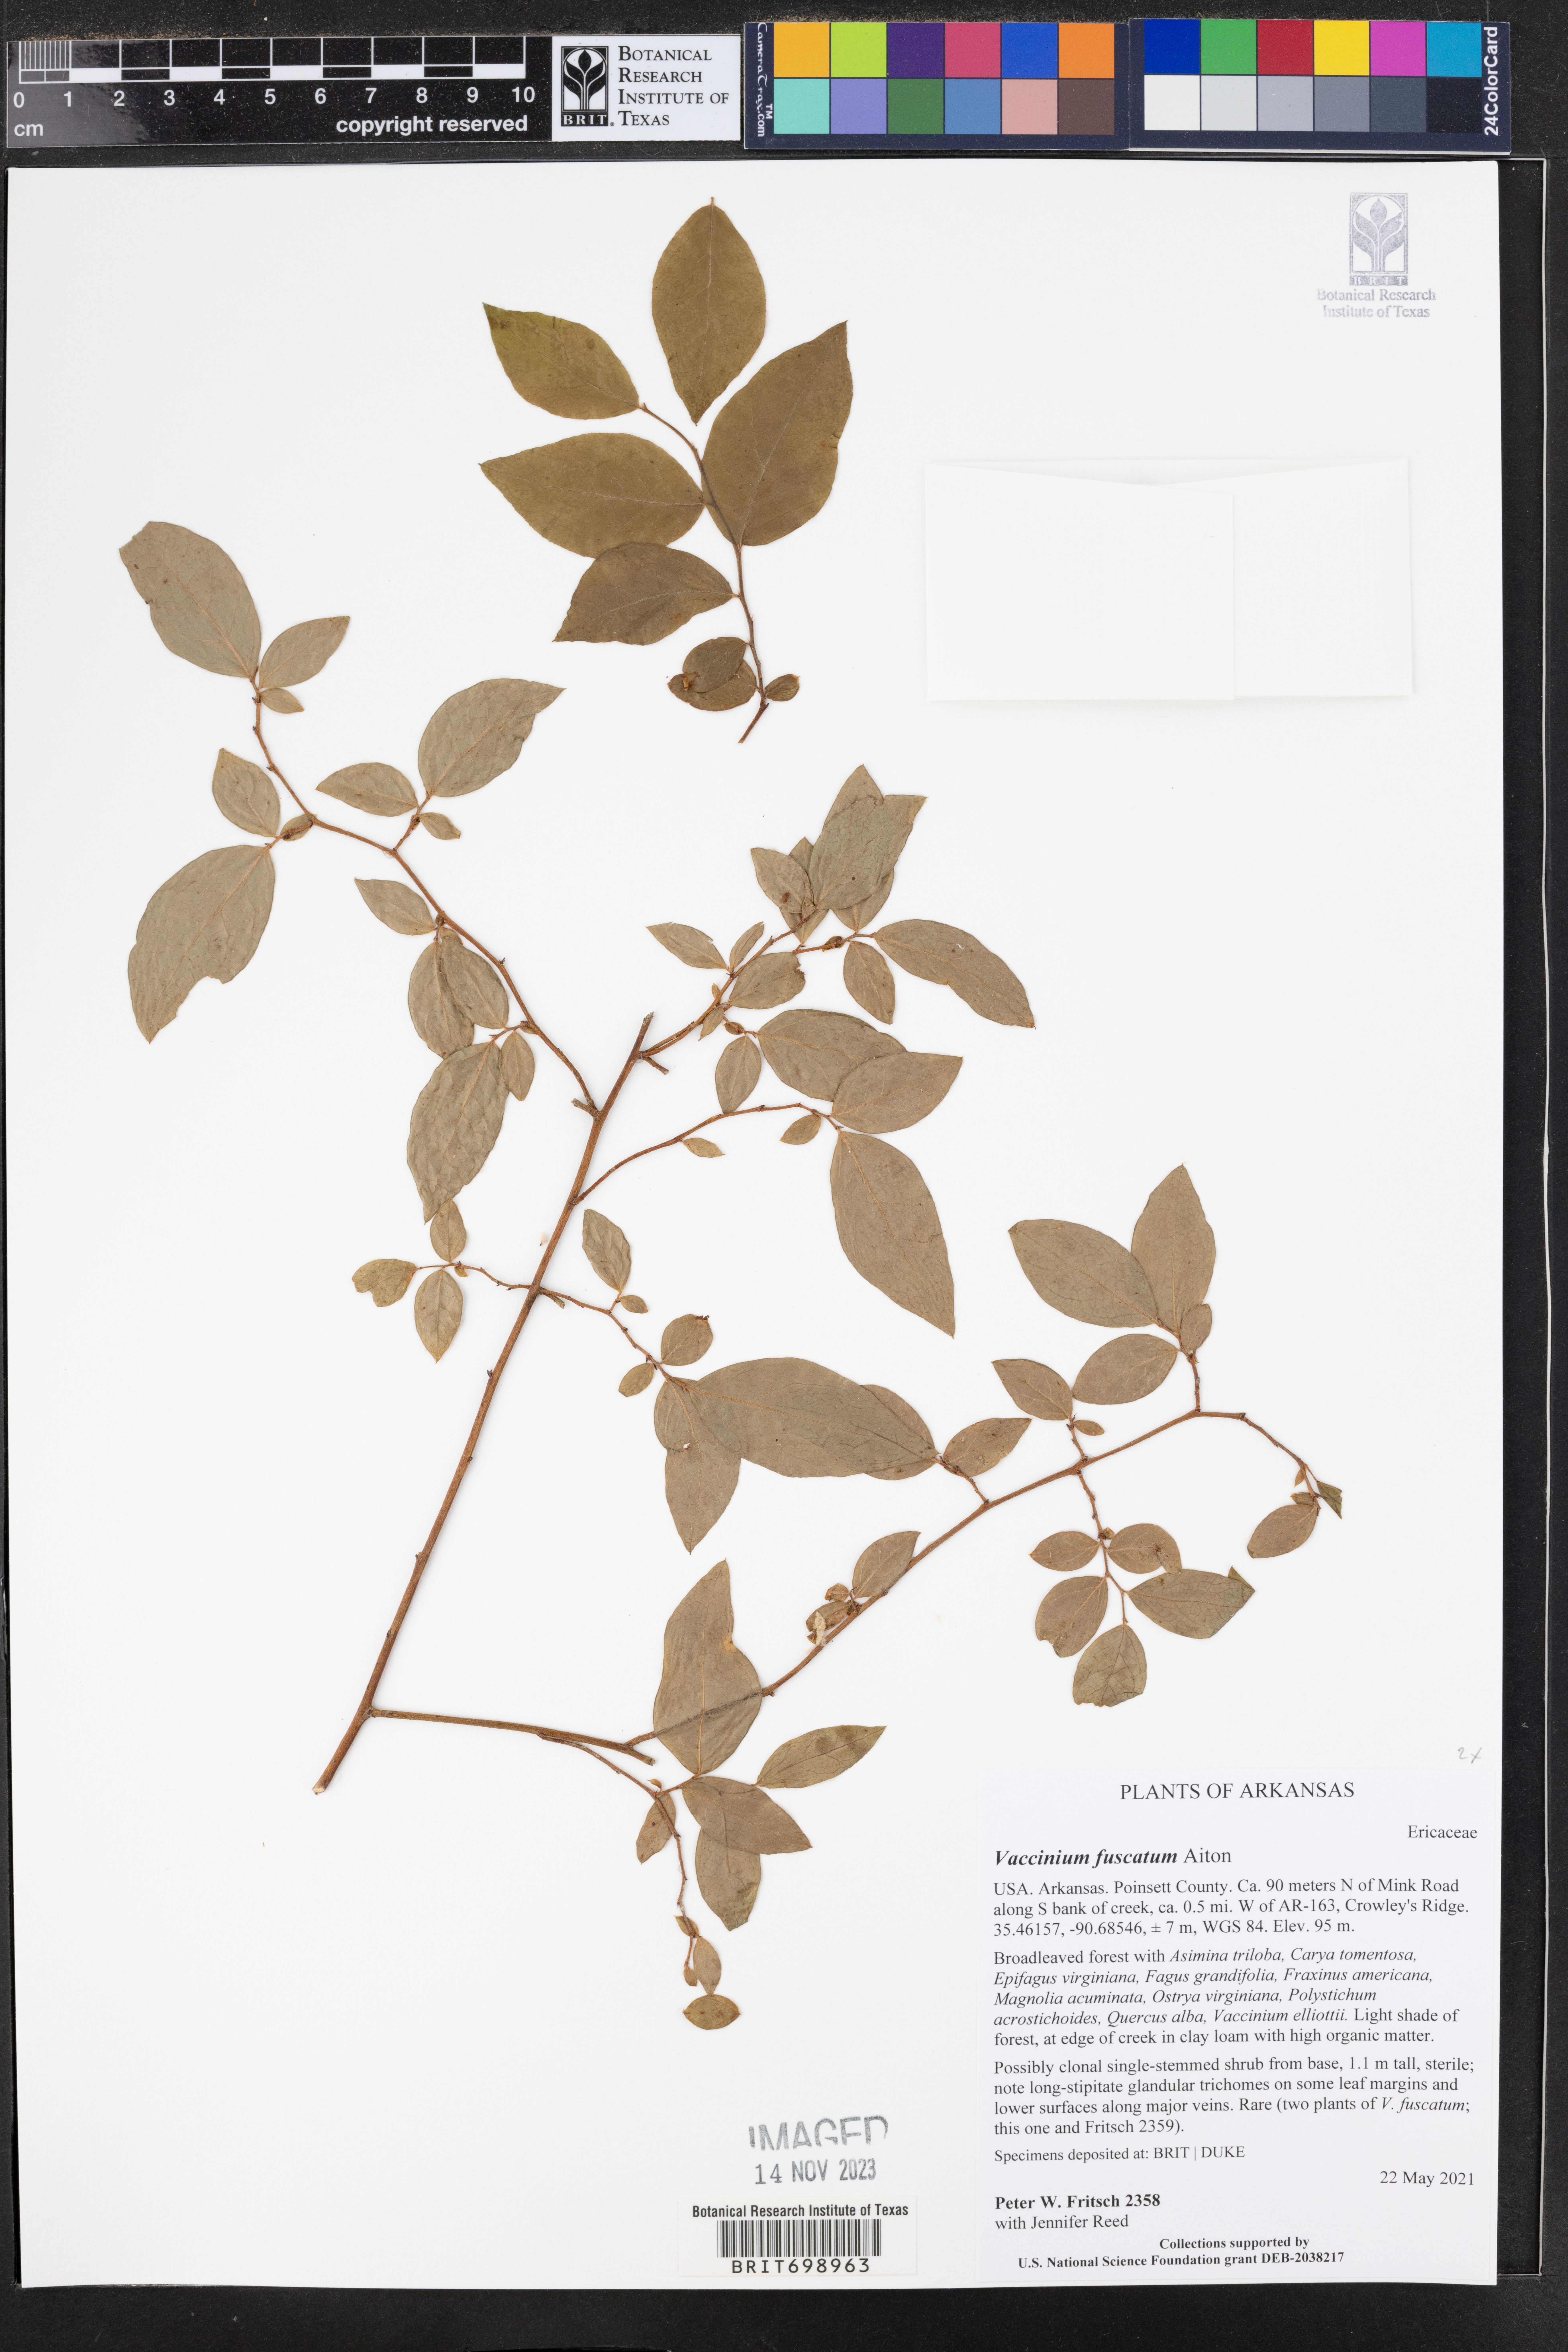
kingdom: Plantae
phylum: Tracheophyta
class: Magnoliopsida
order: Ericales
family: Ericaceae
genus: Vaccinium
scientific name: Vaccinium corymbosum
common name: Blueberry
